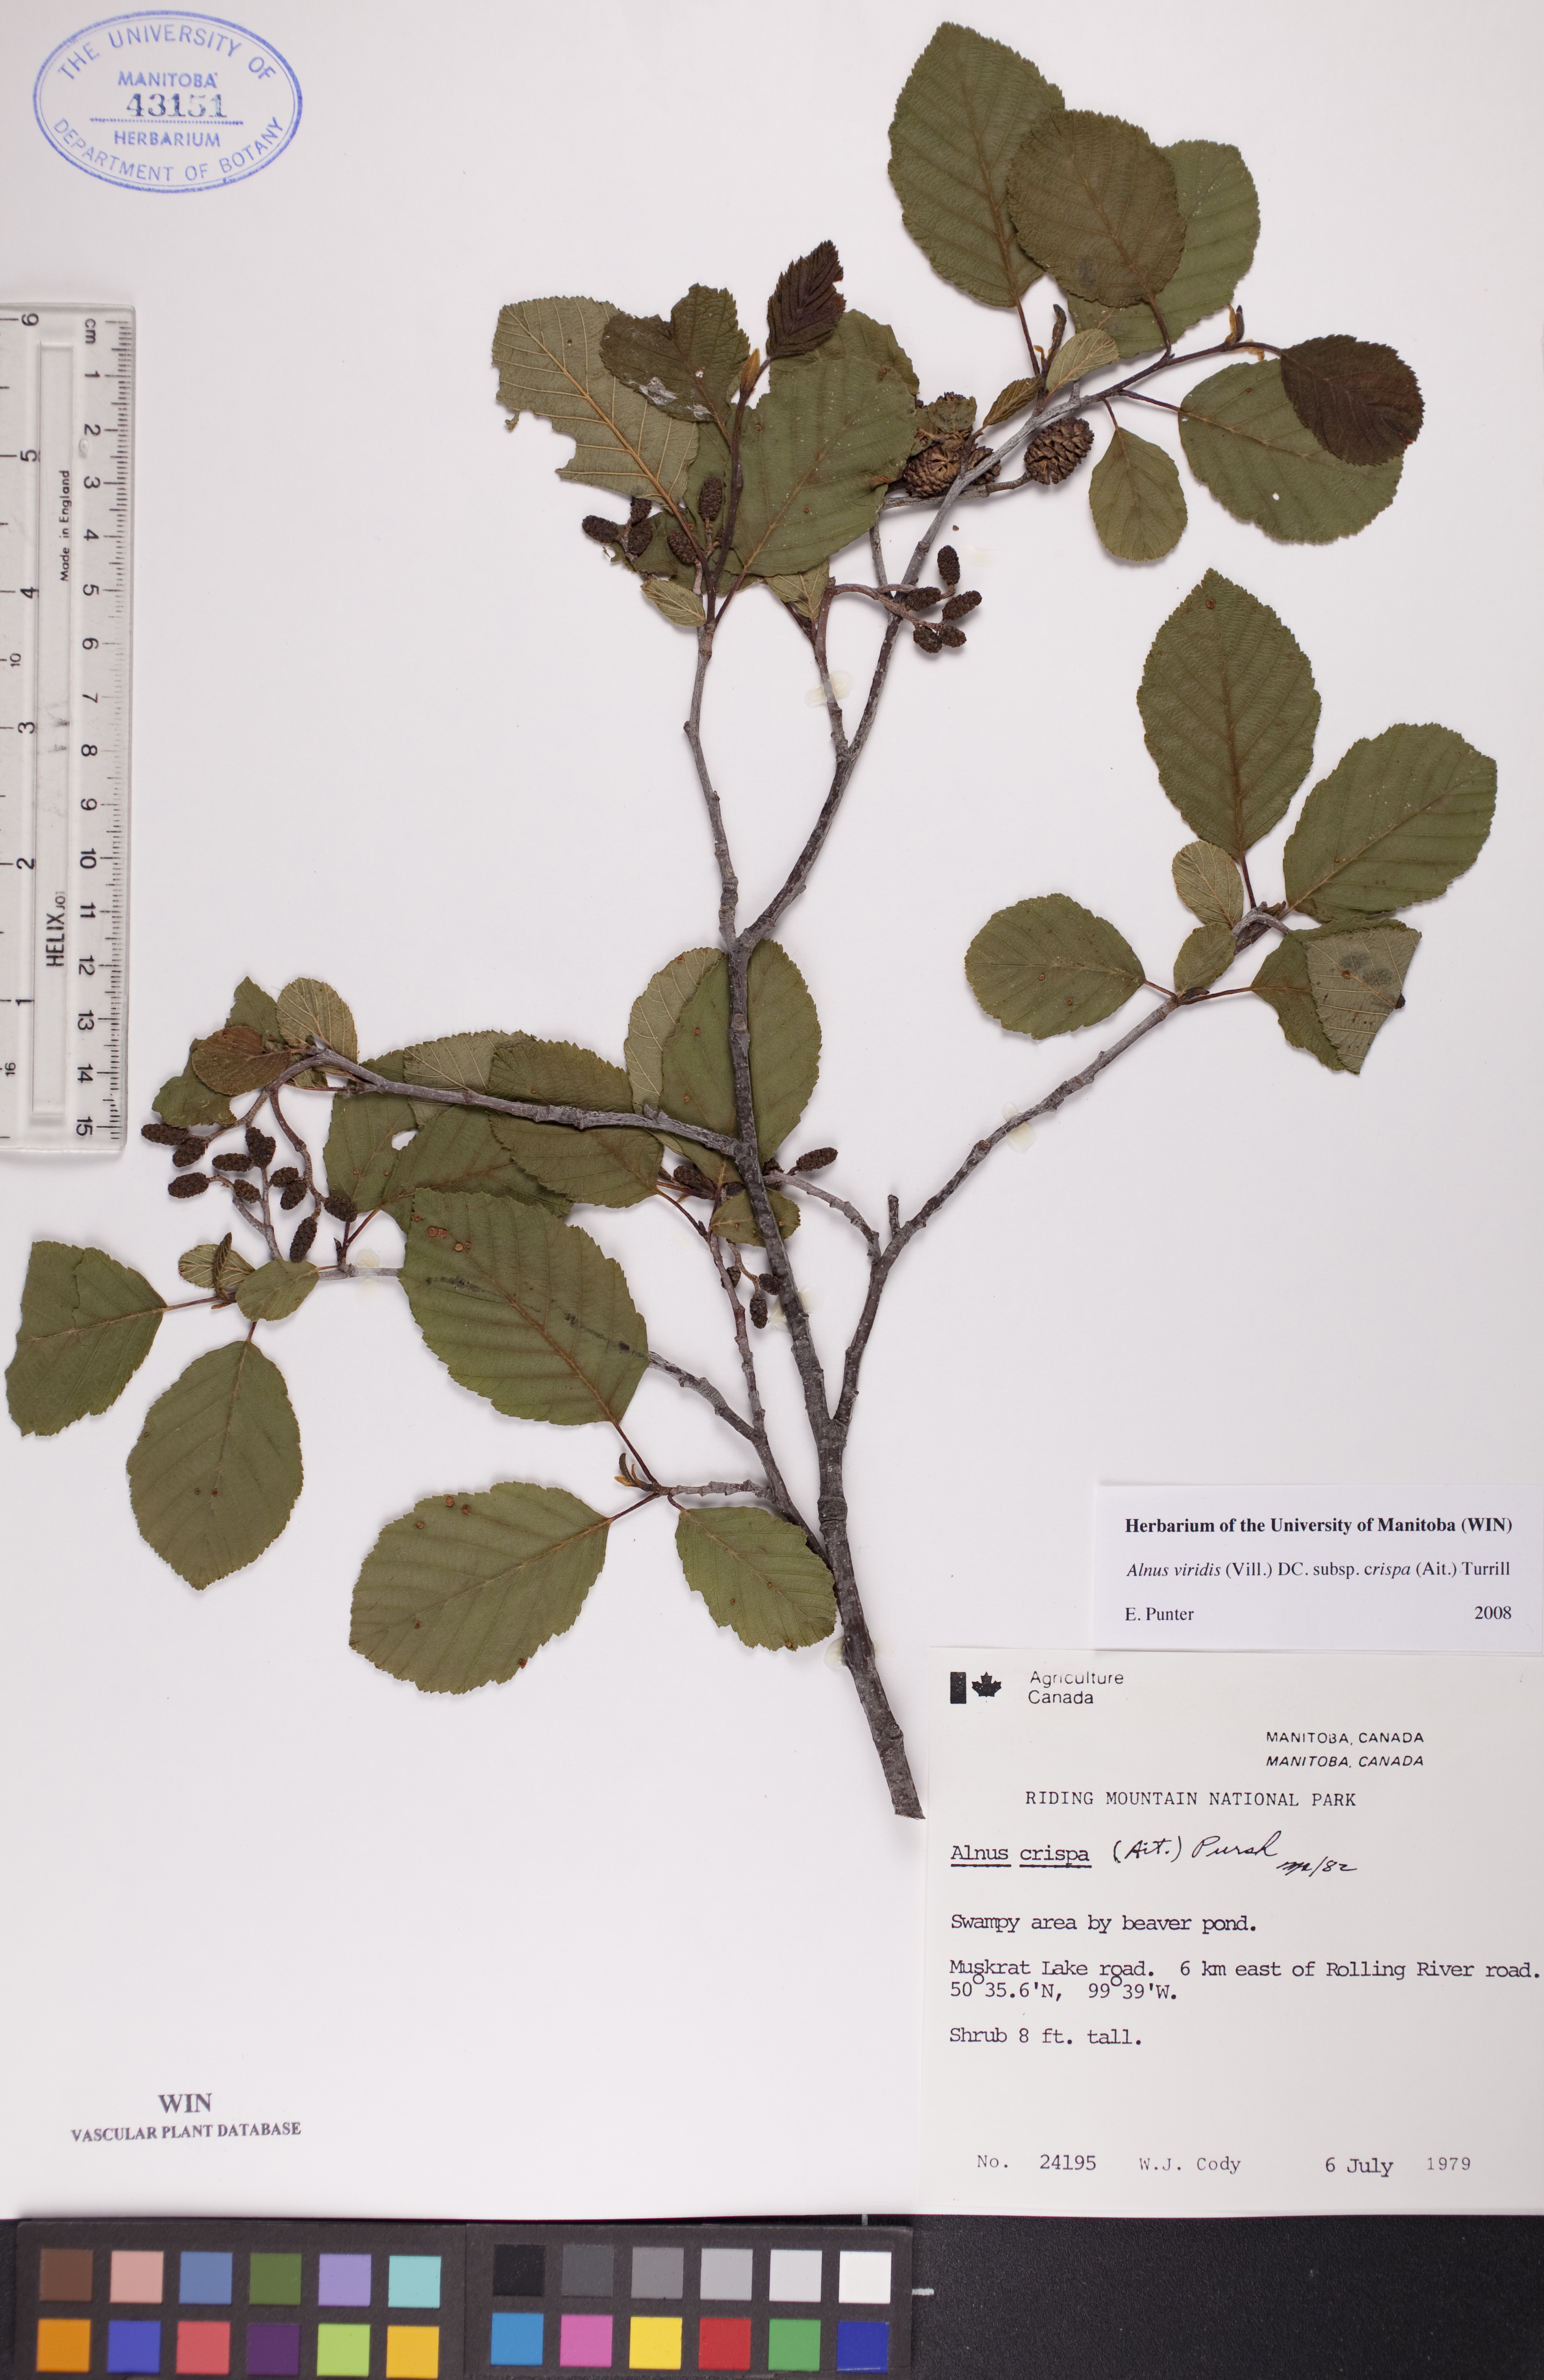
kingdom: Plantae
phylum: Tracheophyta
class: Magnoliopsida
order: Fagales
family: Betulaceae
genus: Alnus
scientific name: Alnus alnobetula
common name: Green alder
